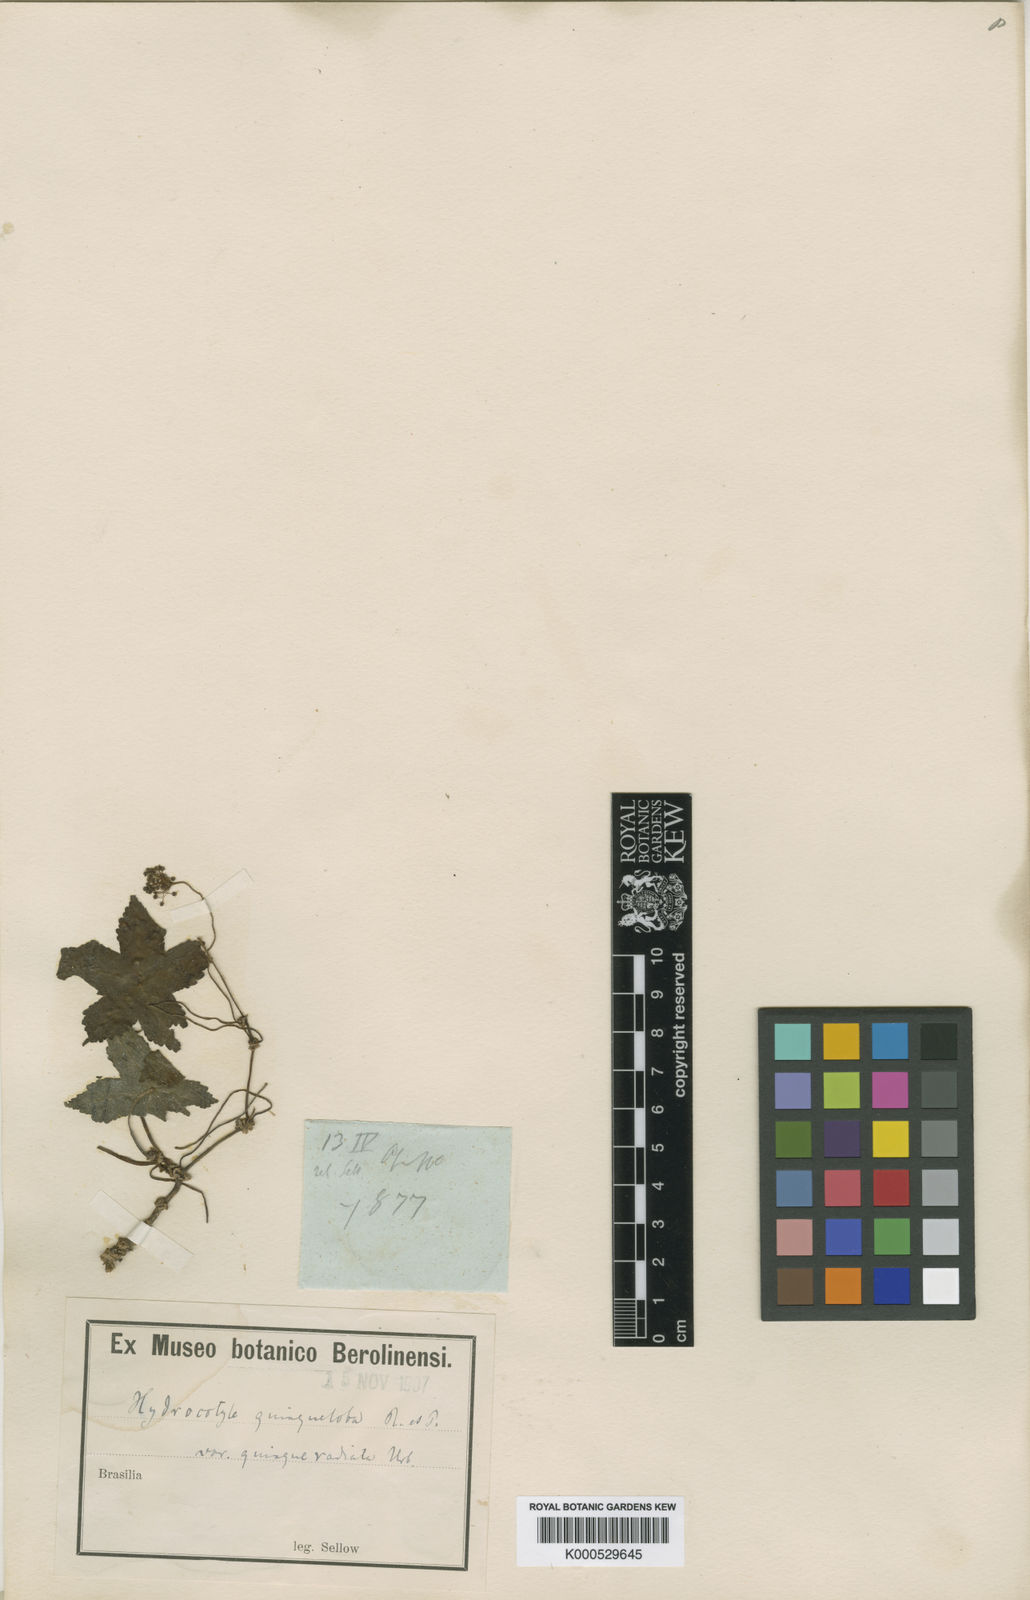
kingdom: Plantae
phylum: Tracheophyta
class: Magnoliopsida
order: Apiales
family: Araliaceae
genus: Hydrocotyle
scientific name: Hydrocotyle quinqueloba
